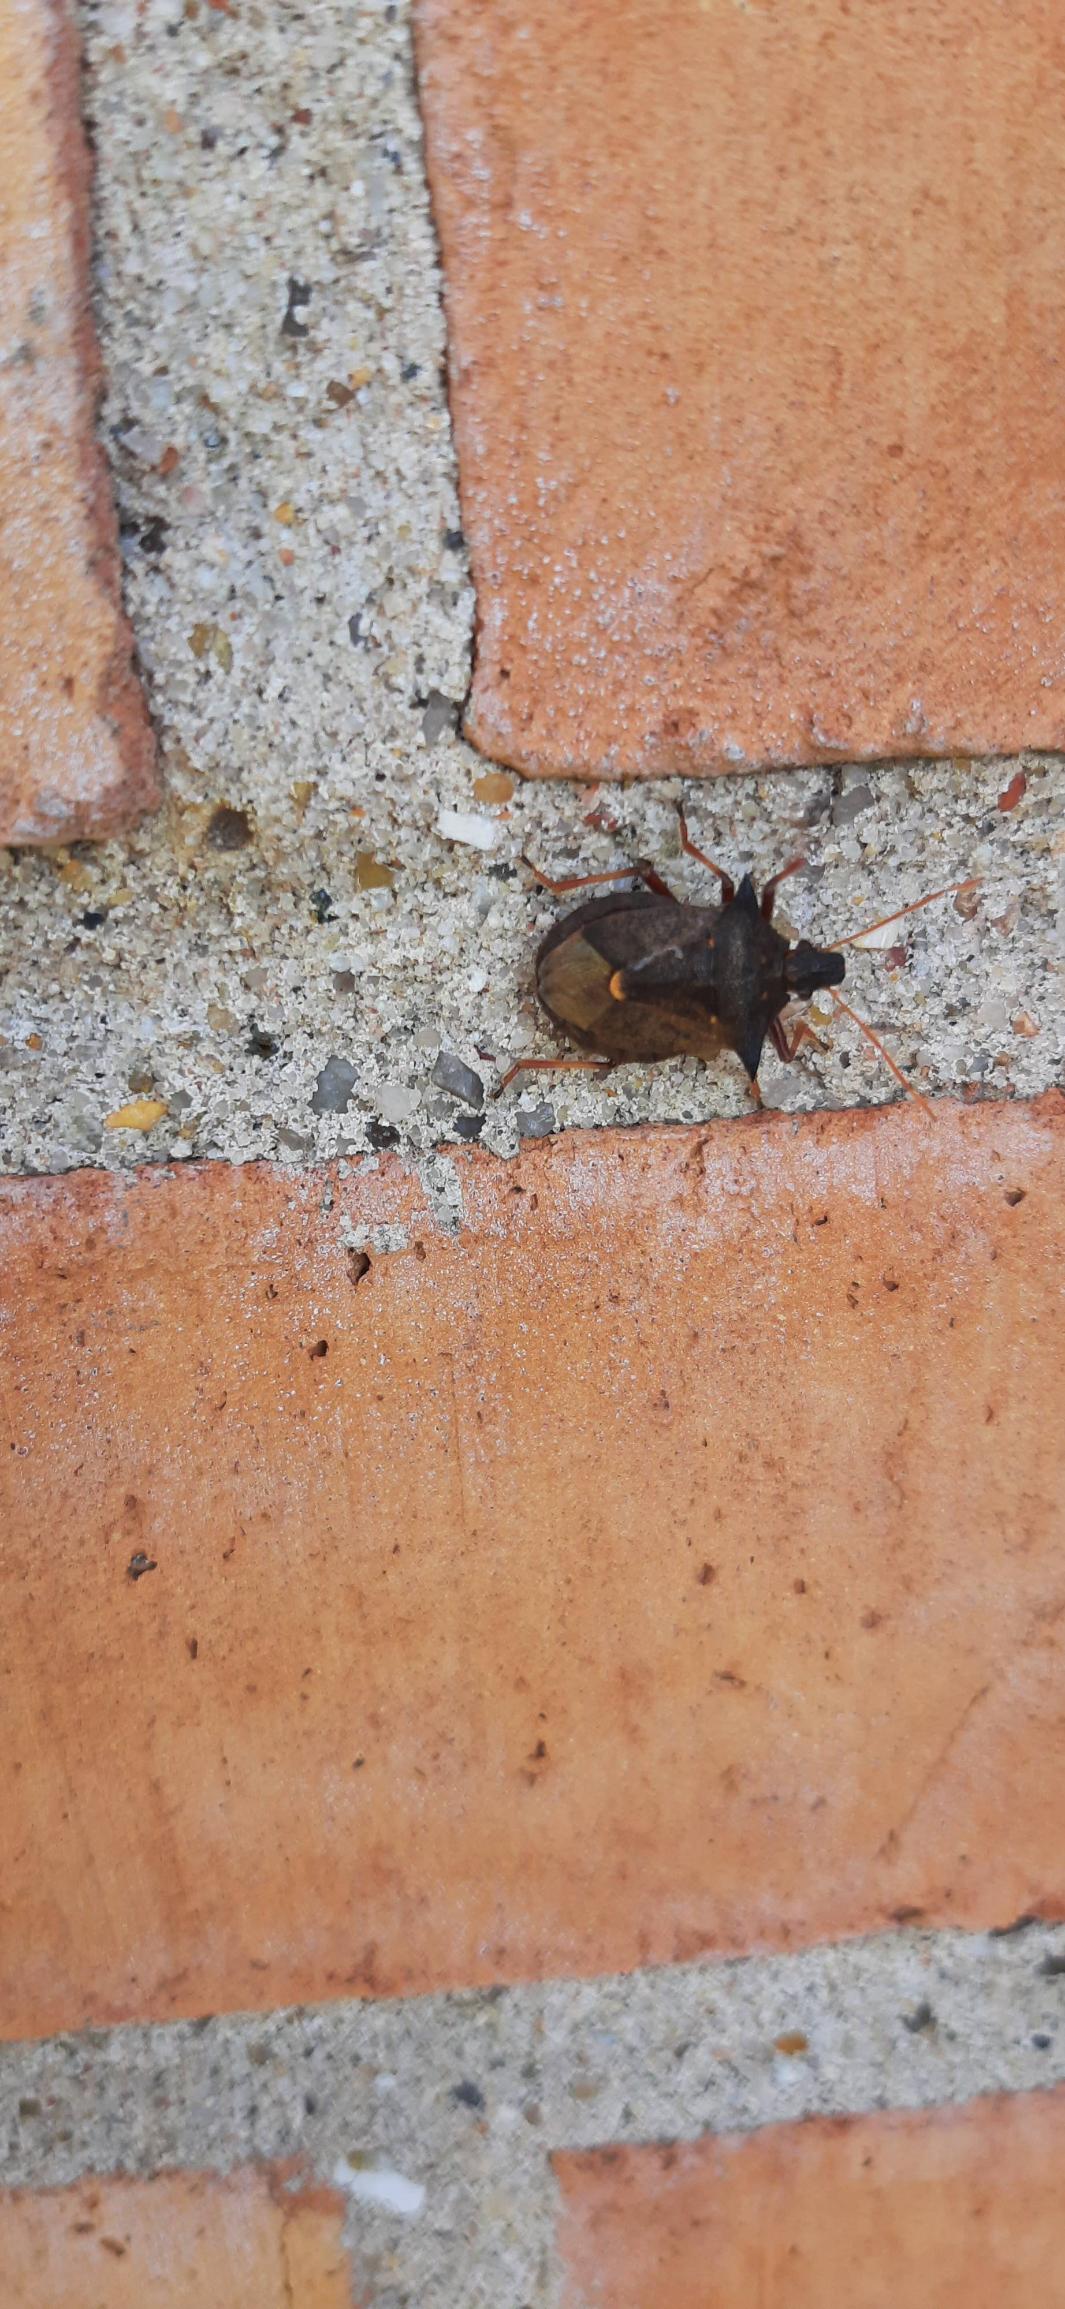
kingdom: Animalia
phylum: Arthropoda
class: Insecta
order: Hemiptera
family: Pentatomidae
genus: Picromerus
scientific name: Picromerus bidens
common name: Torntæge
